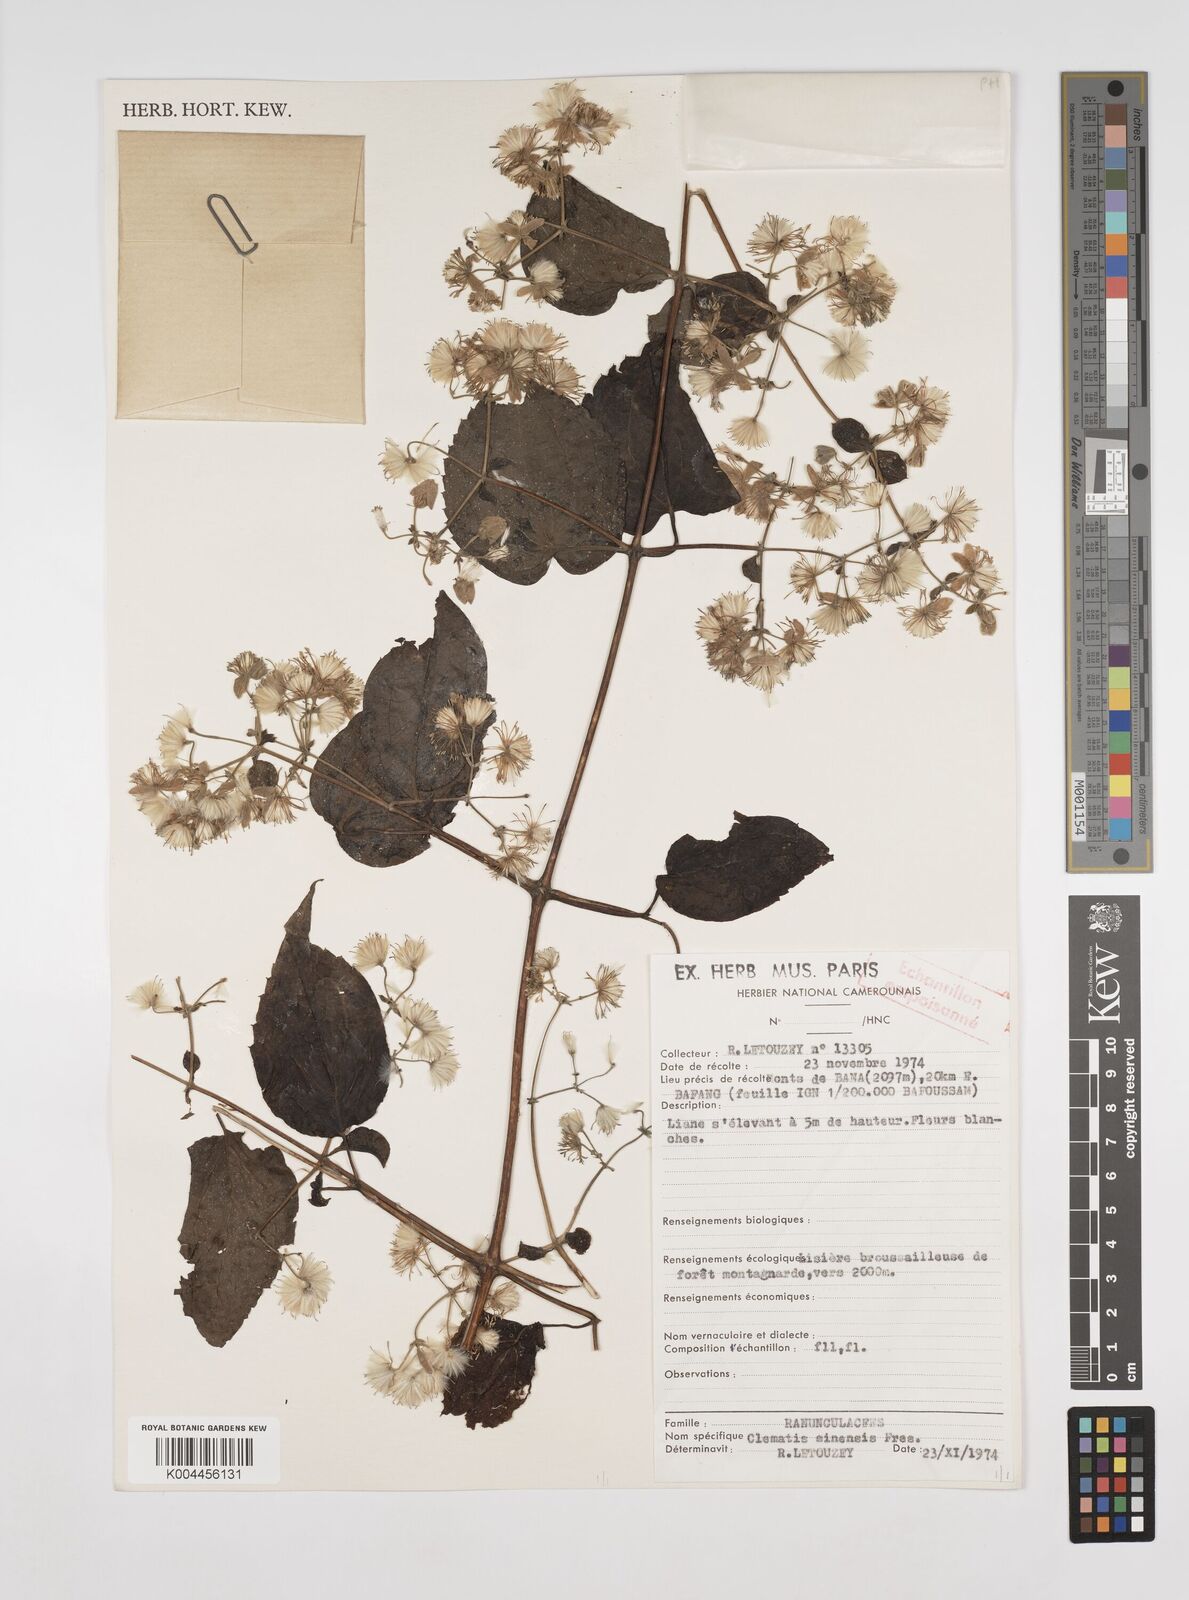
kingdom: Plantae
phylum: Tracheophyta
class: Magnoliopsida
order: Ranunculales
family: Ranunculaceae
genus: Clematis
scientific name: Clematis simensis
